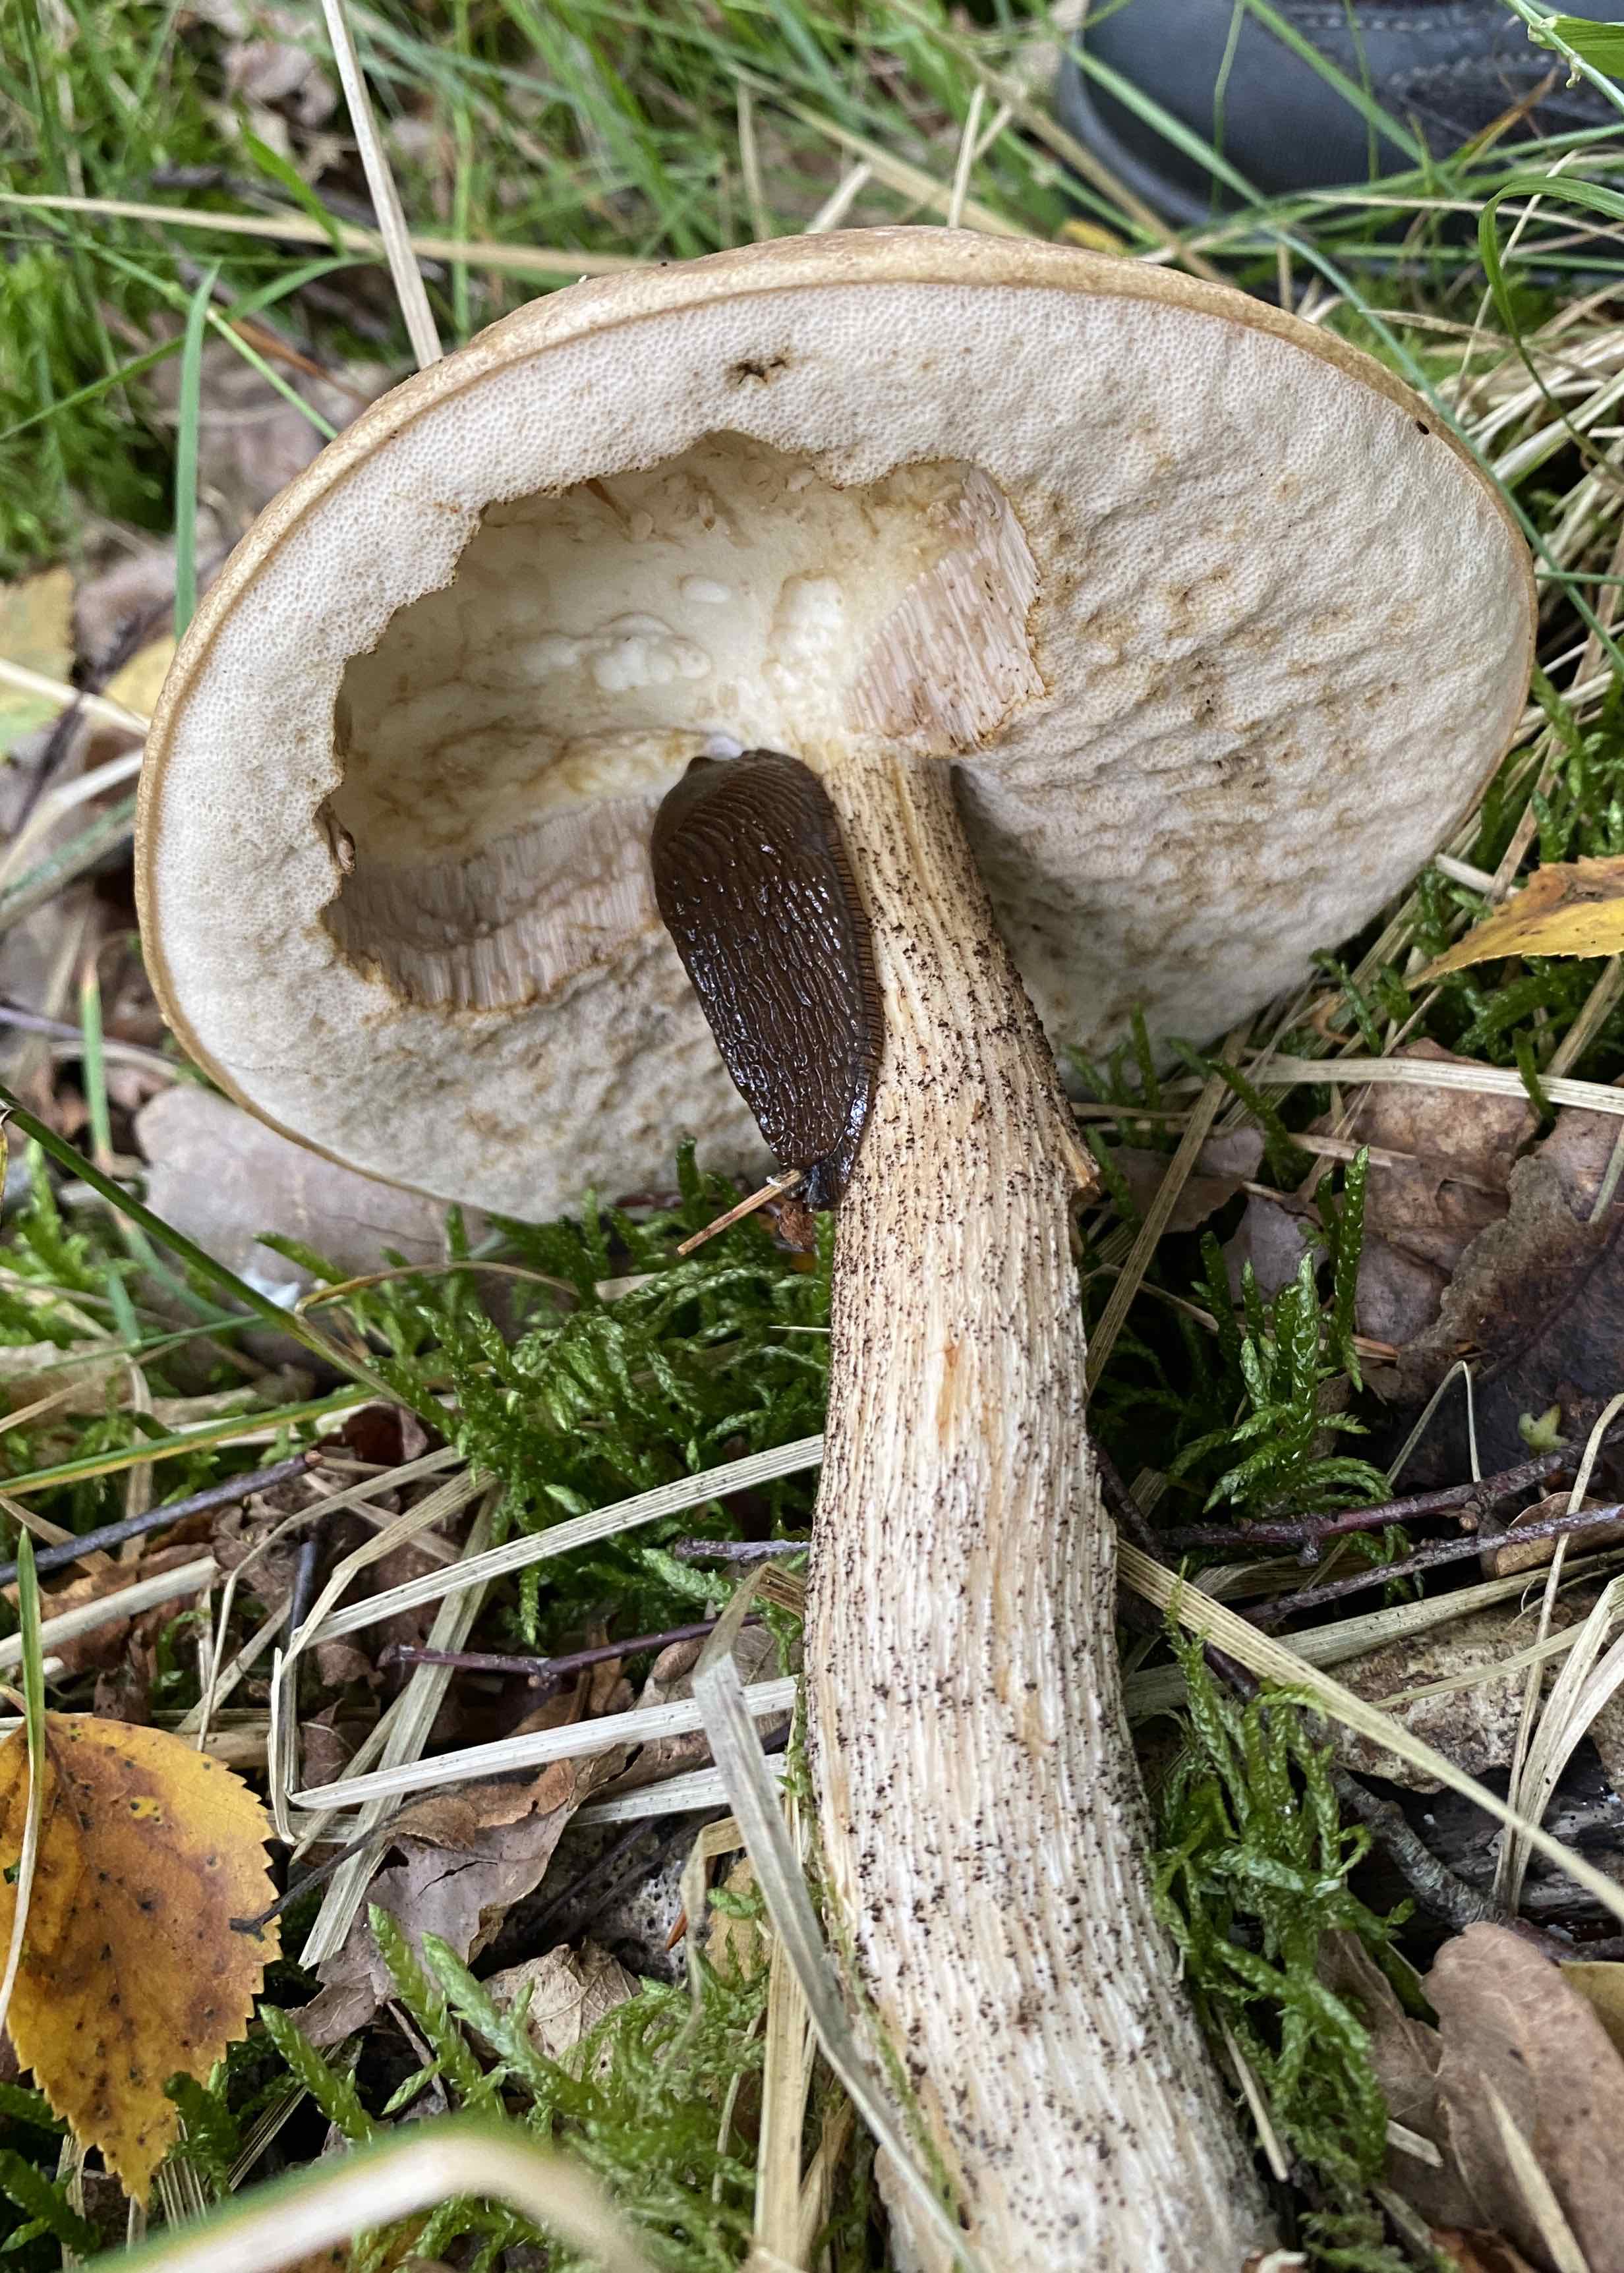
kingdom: Fungi
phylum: Basidiomycota
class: Agaricomycetes
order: Boletales
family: Boletaceae
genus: Leccinum
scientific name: Leccinum scabrum
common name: brun skælrørhat
